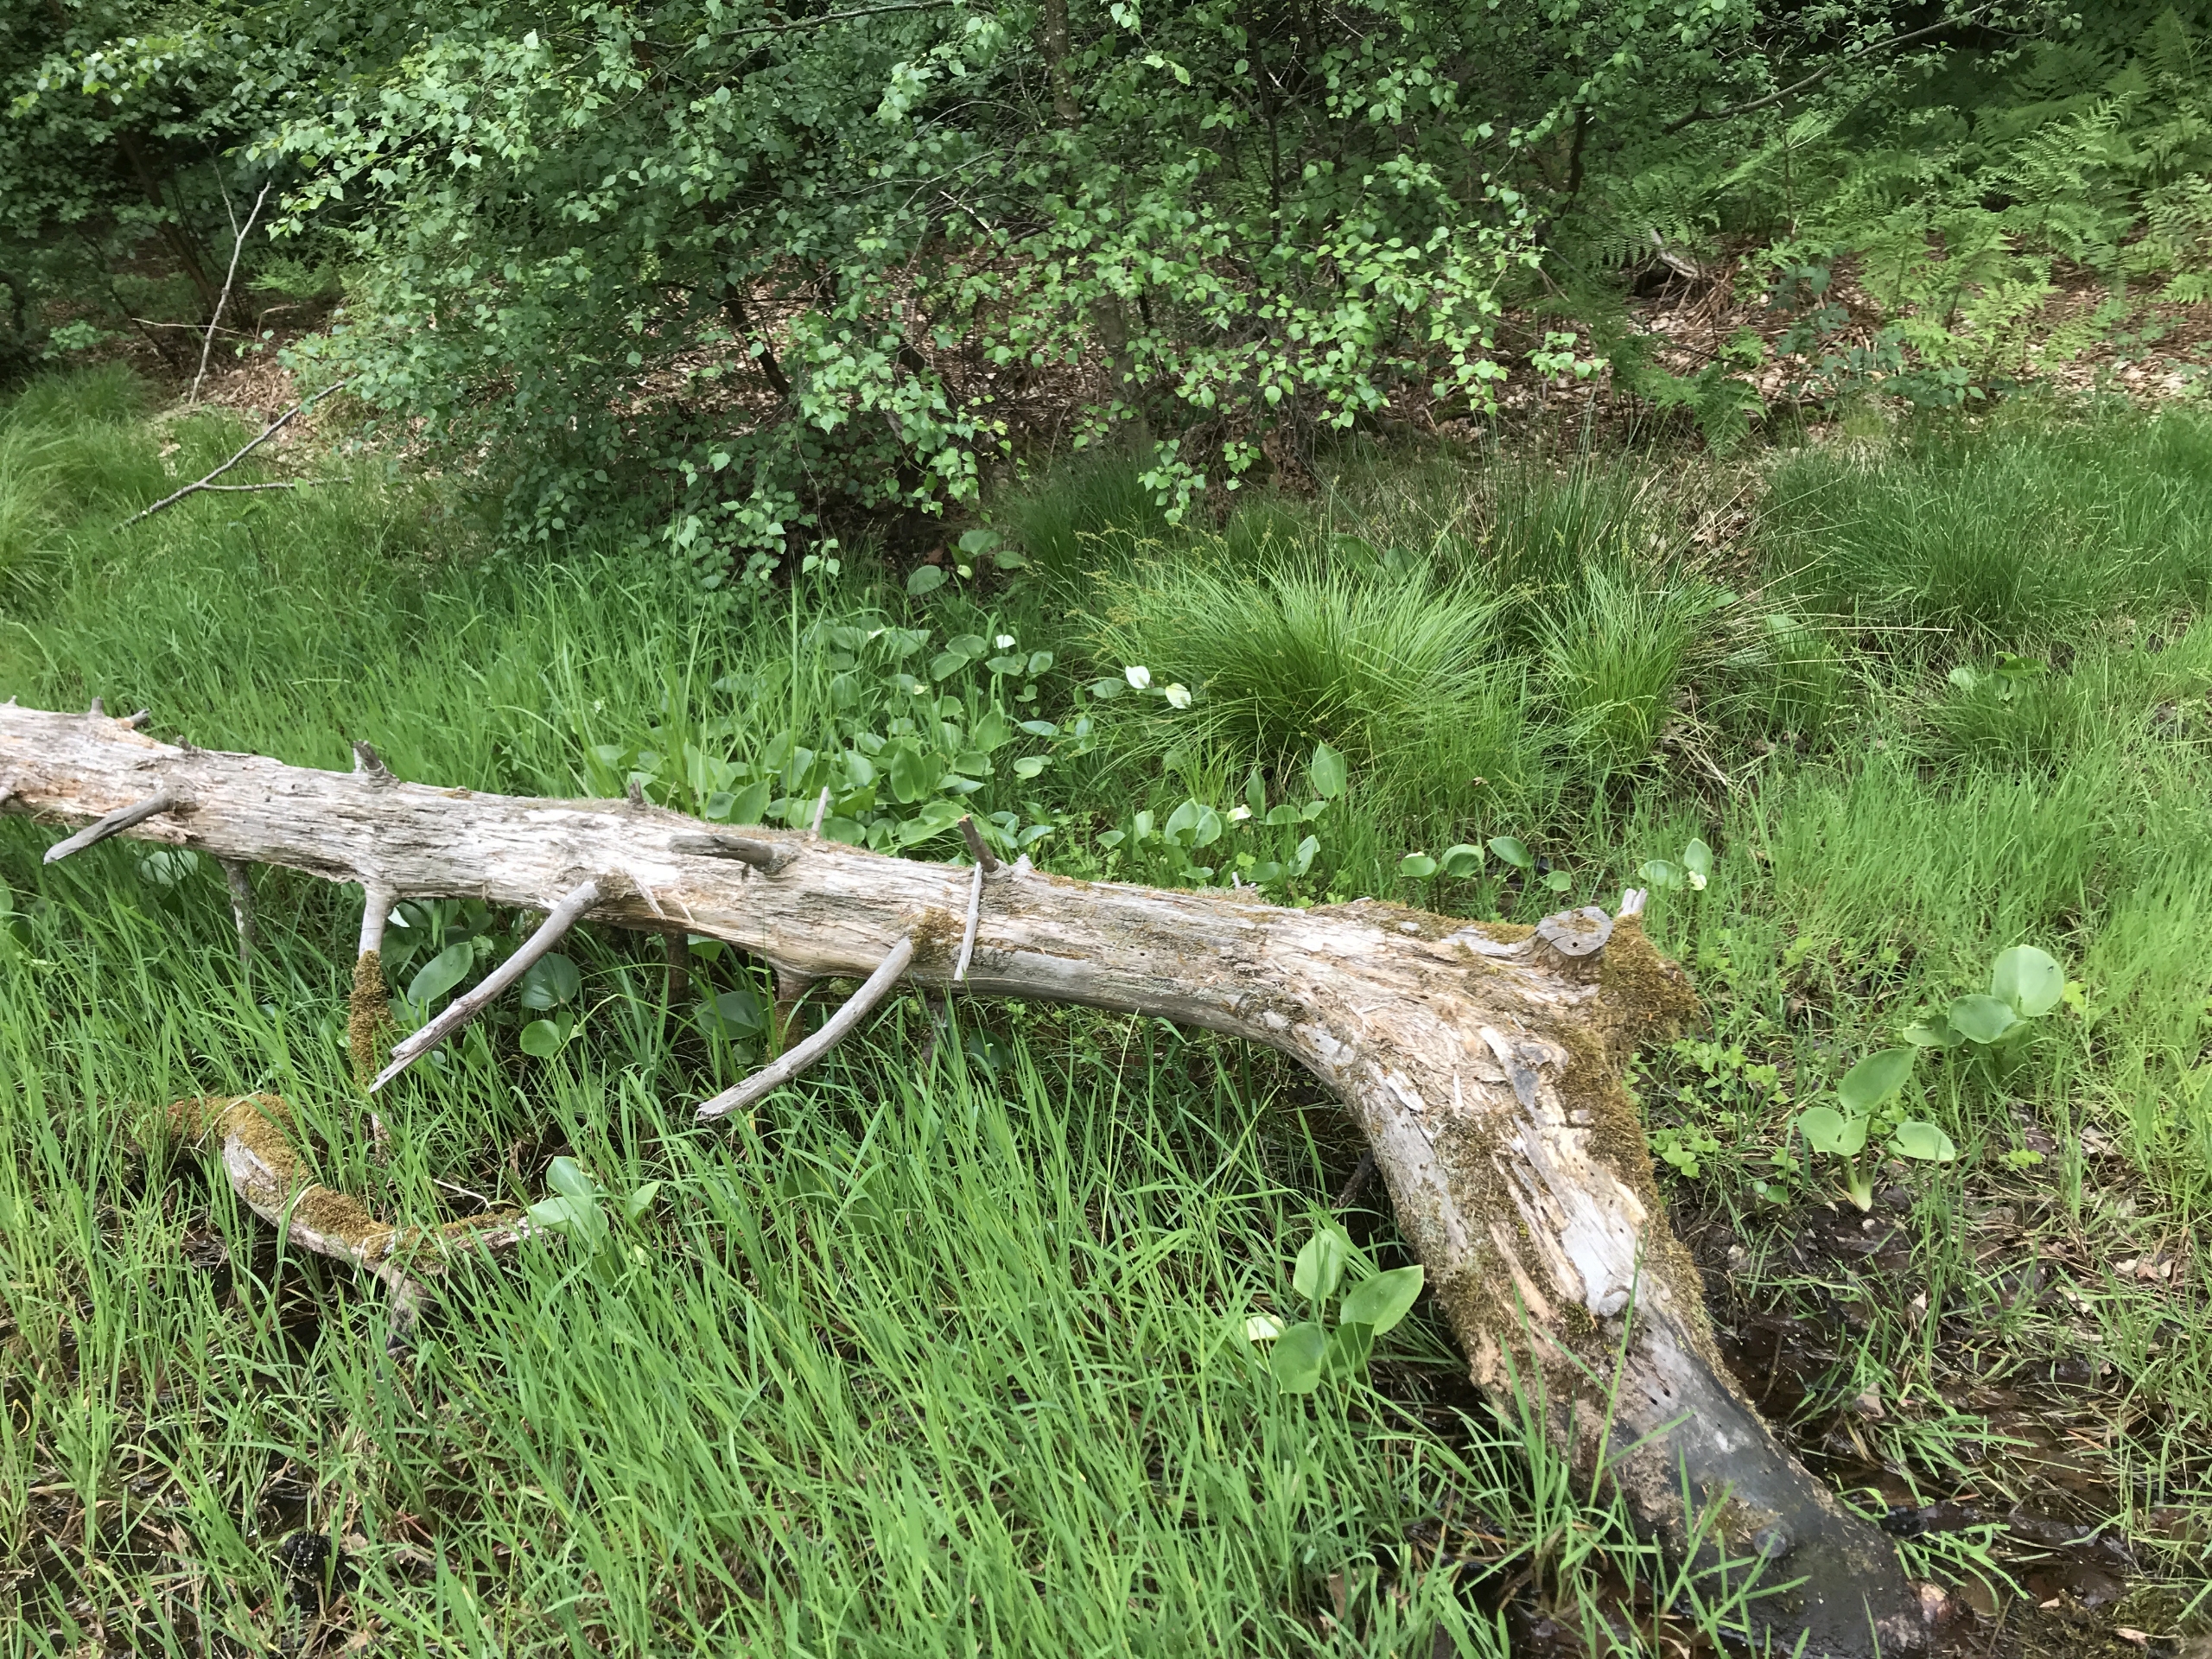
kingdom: Plantae
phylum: Tracheophyta
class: Liliopsida
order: Alismatales
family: Araceae
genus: Calla
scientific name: Calla palustris
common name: Kærmysse
